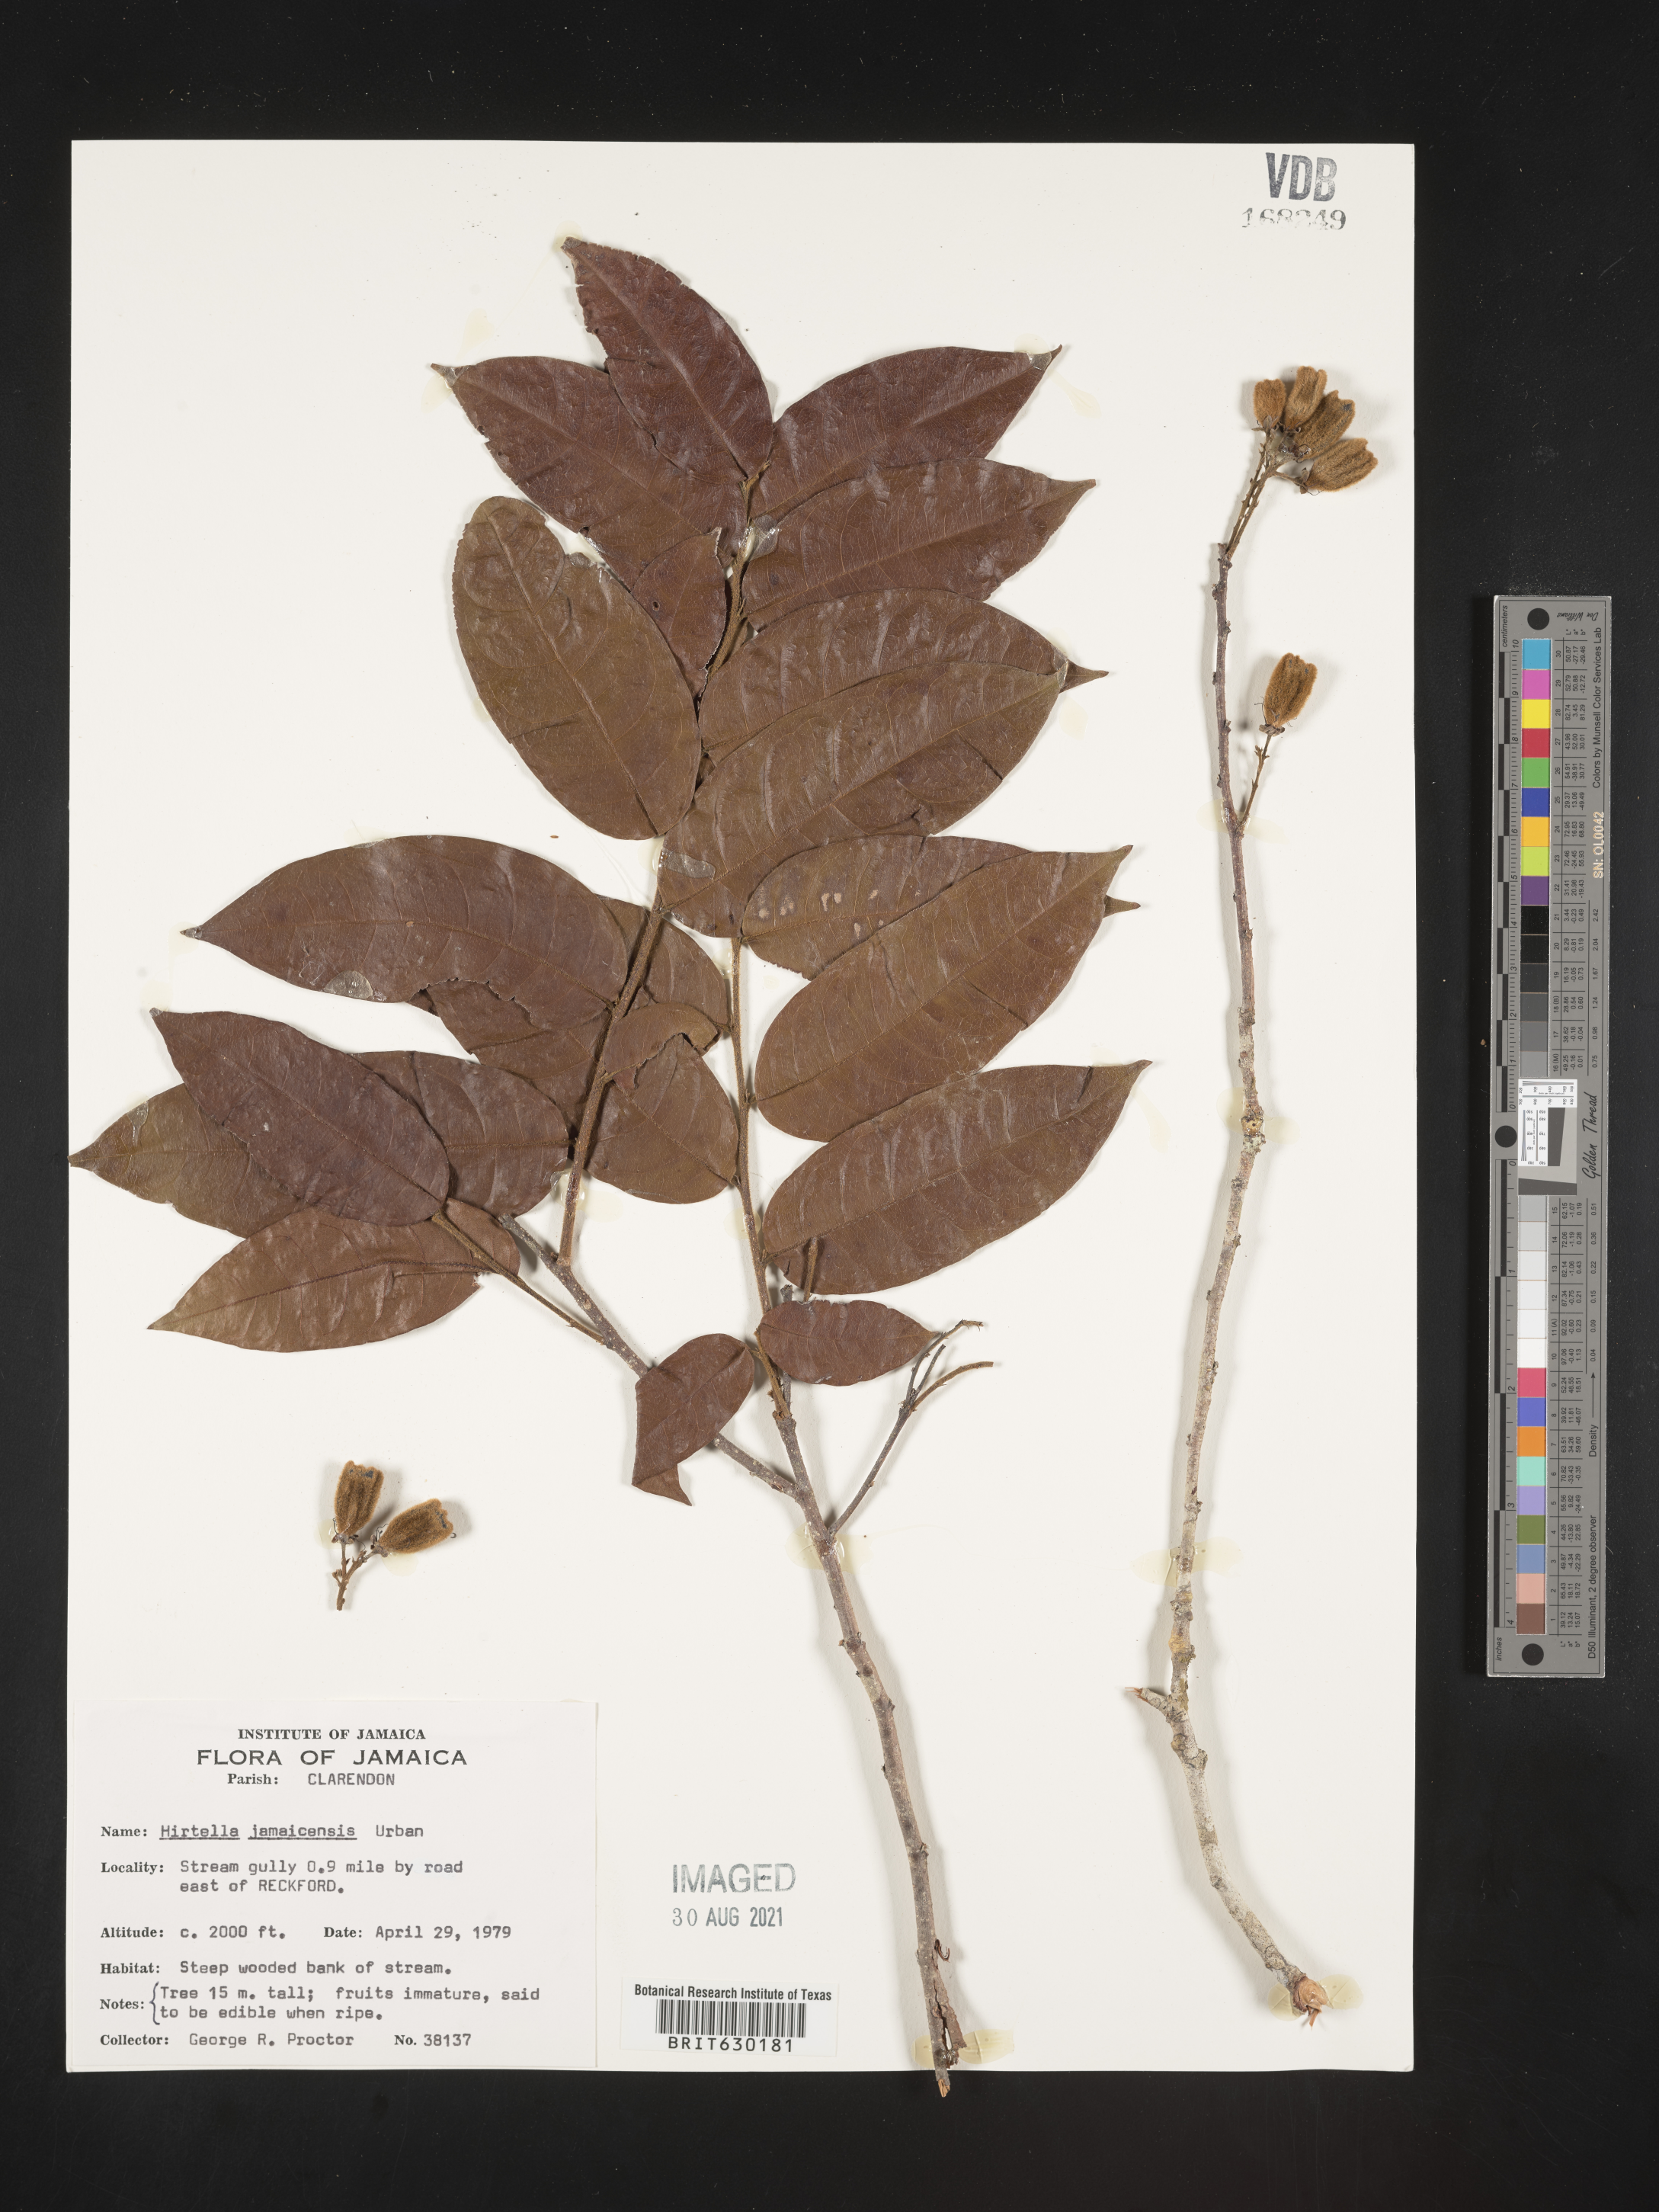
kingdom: Plantae
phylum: Tracheophyta
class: Magnoliopsida
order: Malpighiales
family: Chrysobalanaceae
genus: Hirtella
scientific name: Hirtella triandra
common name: Hairy plum
